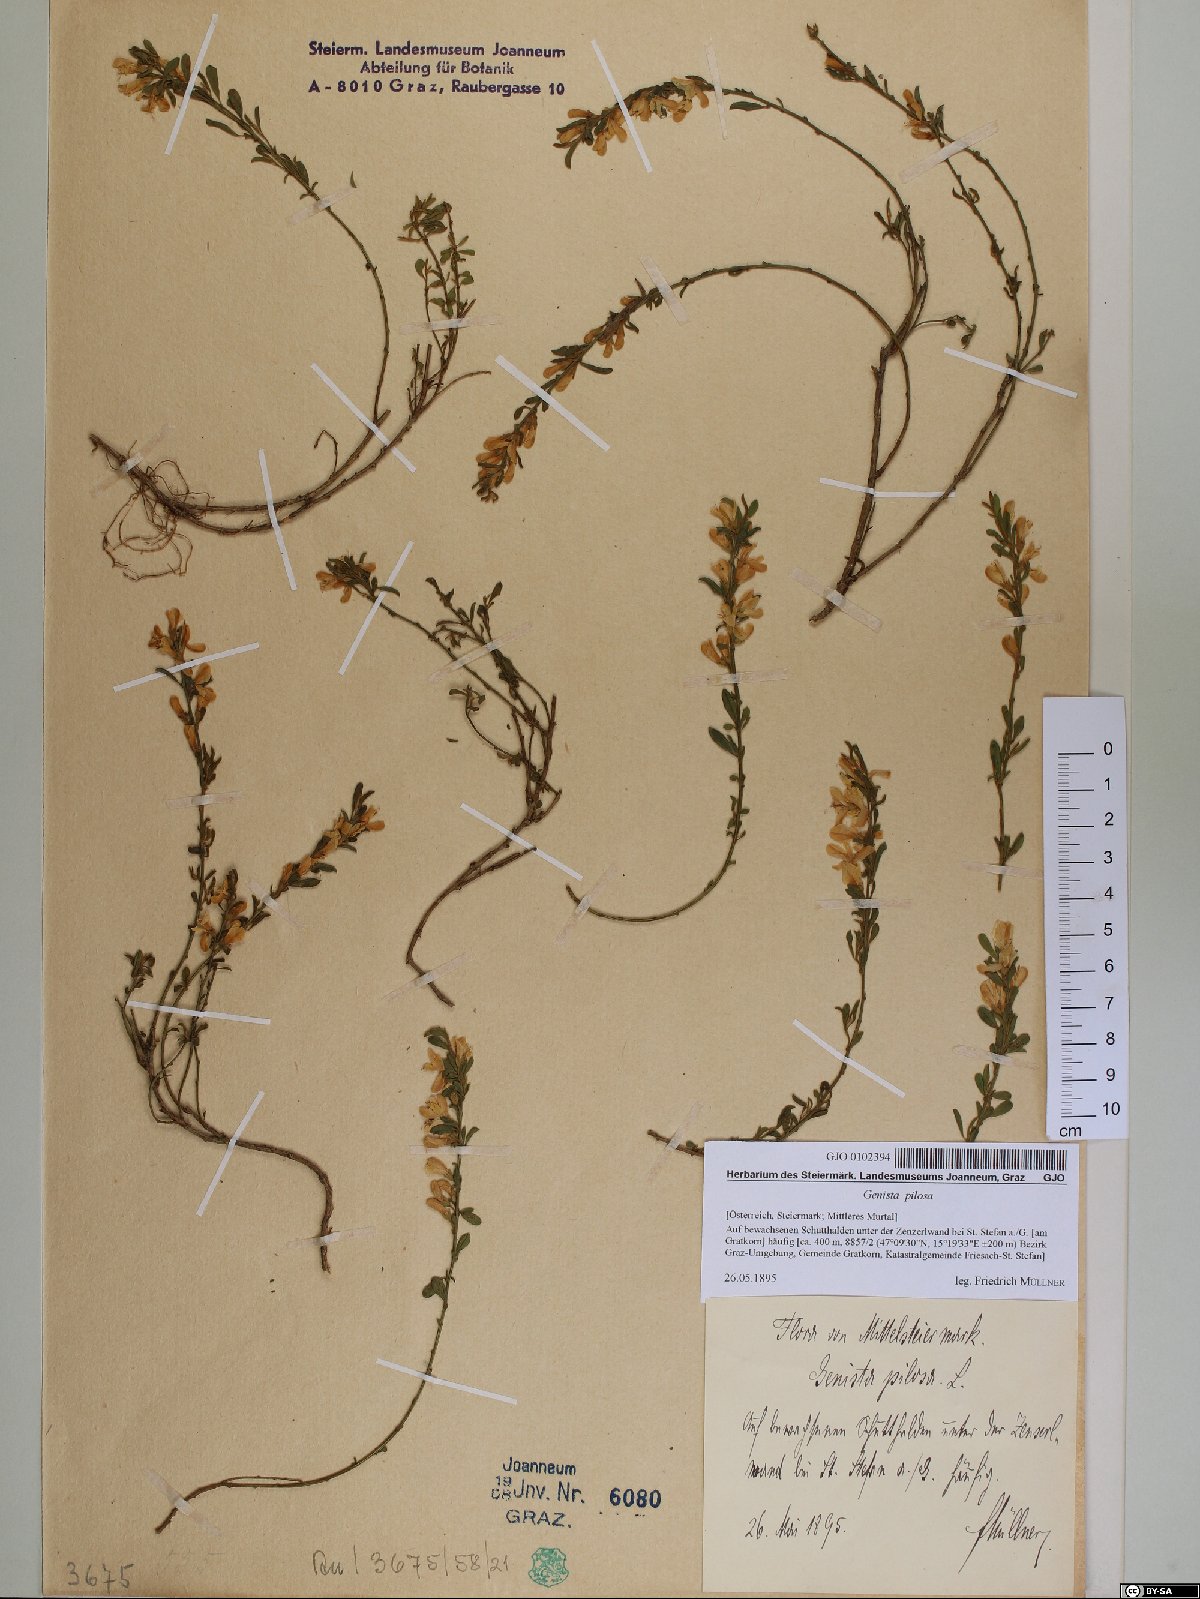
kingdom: Plantae
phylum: Tracheophyta
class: Magnoliopsida
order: Fabales
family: Fabaceae
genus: Genista
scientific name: Genista pilosa
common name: Hairy greenweed
